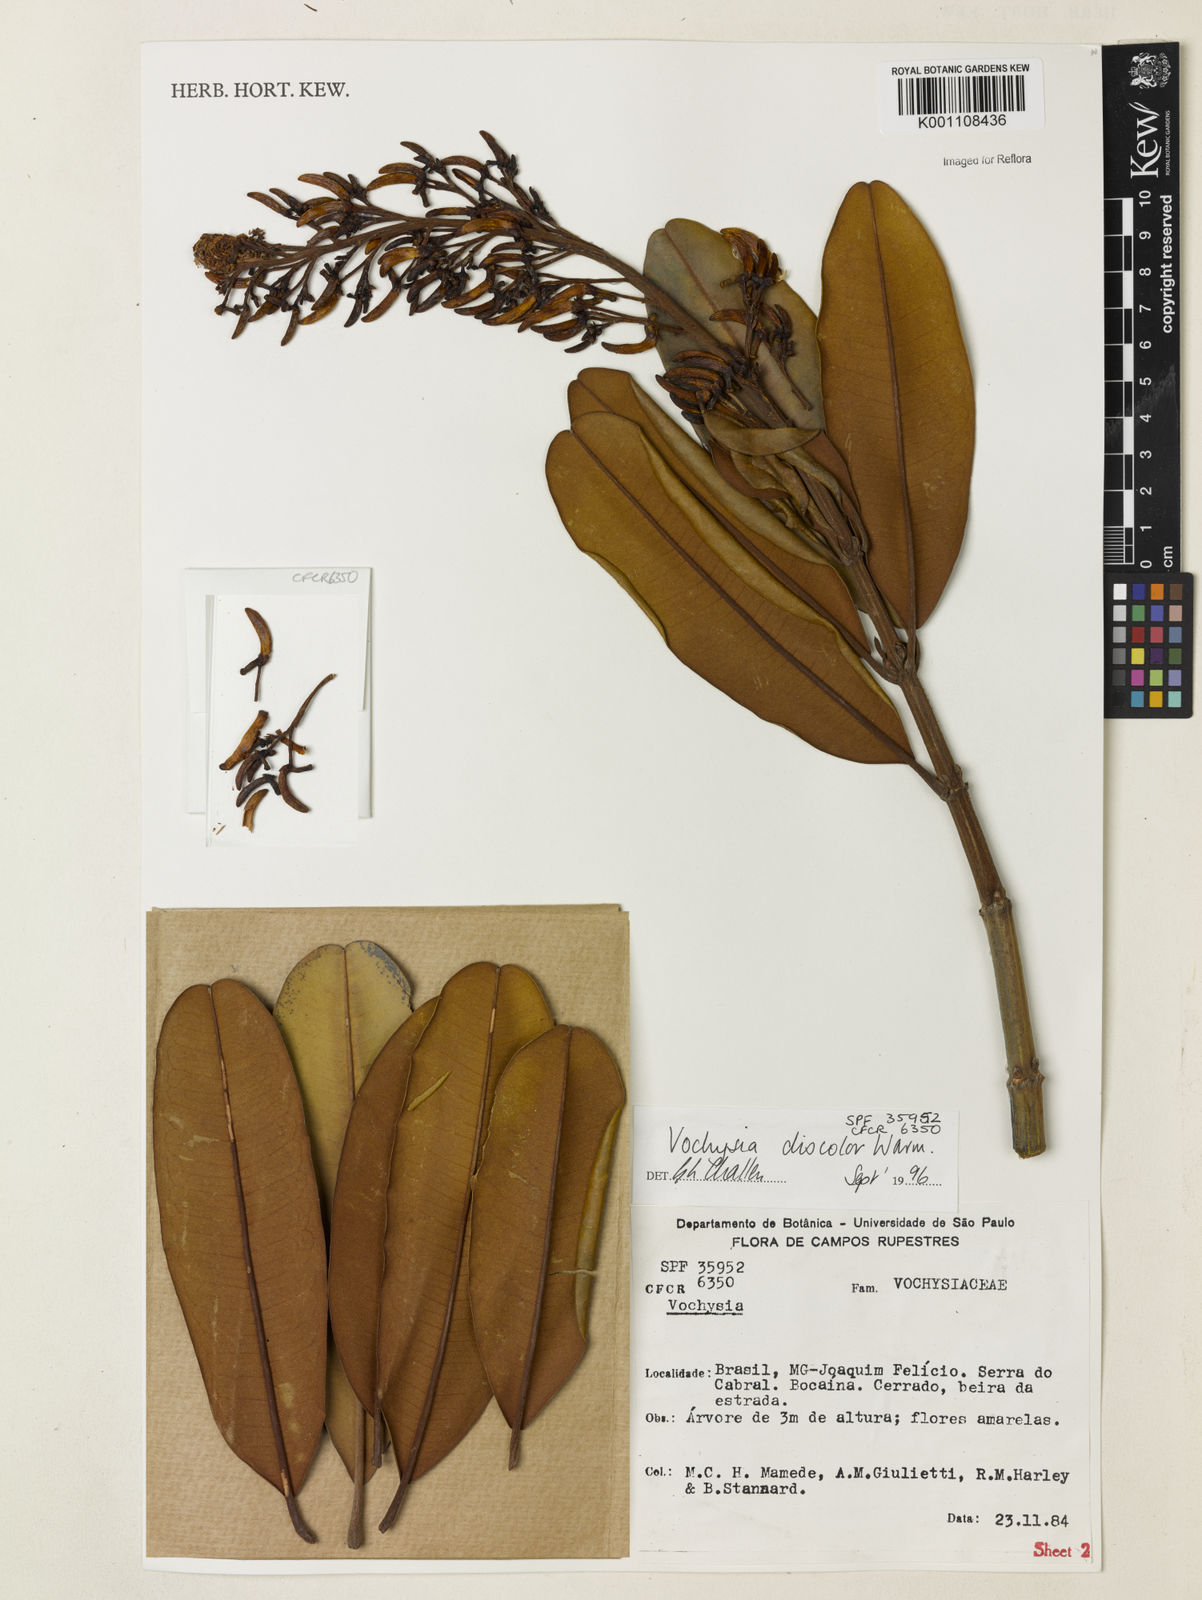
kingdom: Plantae
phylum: Tracheophyta
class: Magnoliopsida
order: Myrtales
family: Vochysiaceae
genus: Vochysia
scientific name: Vochysia discolor
